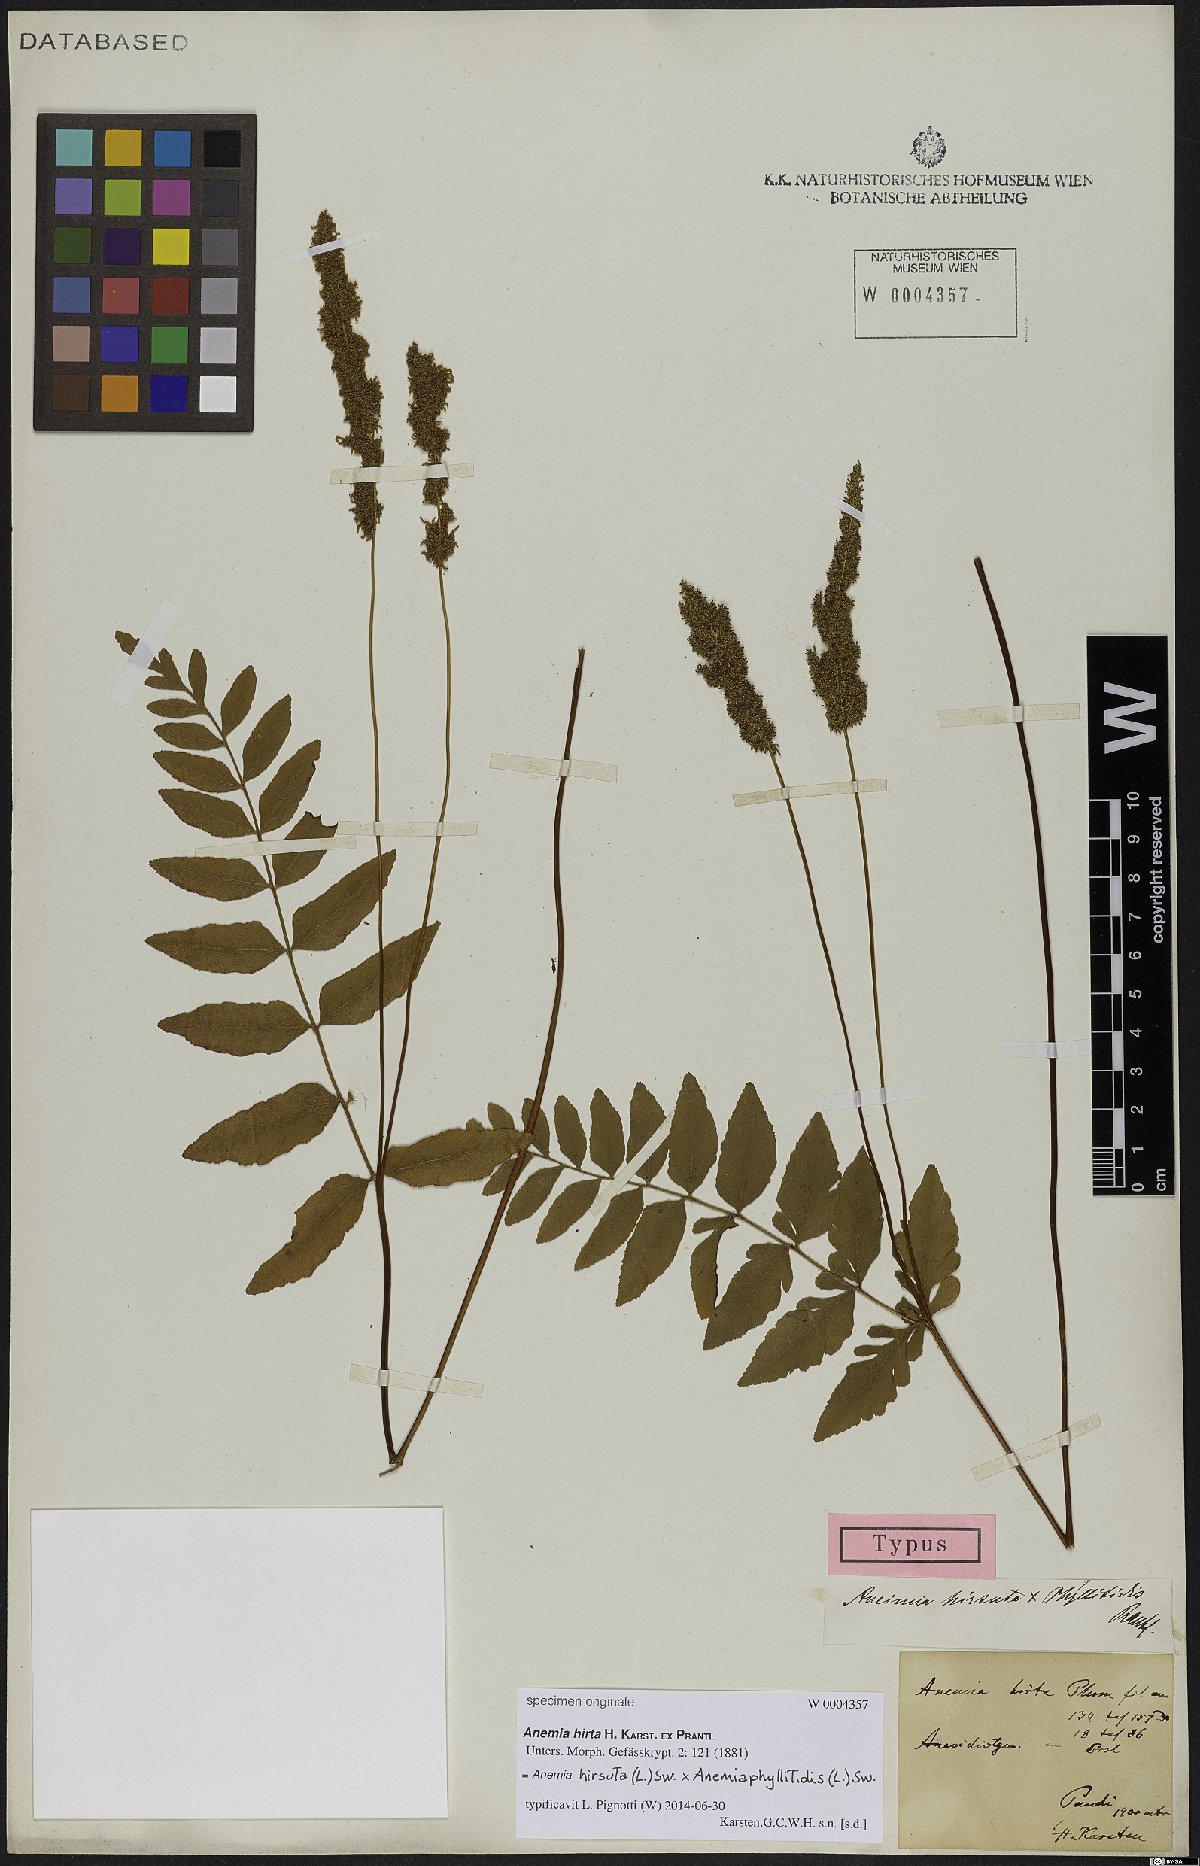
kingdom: Plantae
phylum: Tracheophyta
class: Polypodiopsida
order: Schizaeales
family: Anemiaceae
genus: Anemia
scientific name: Anemia
